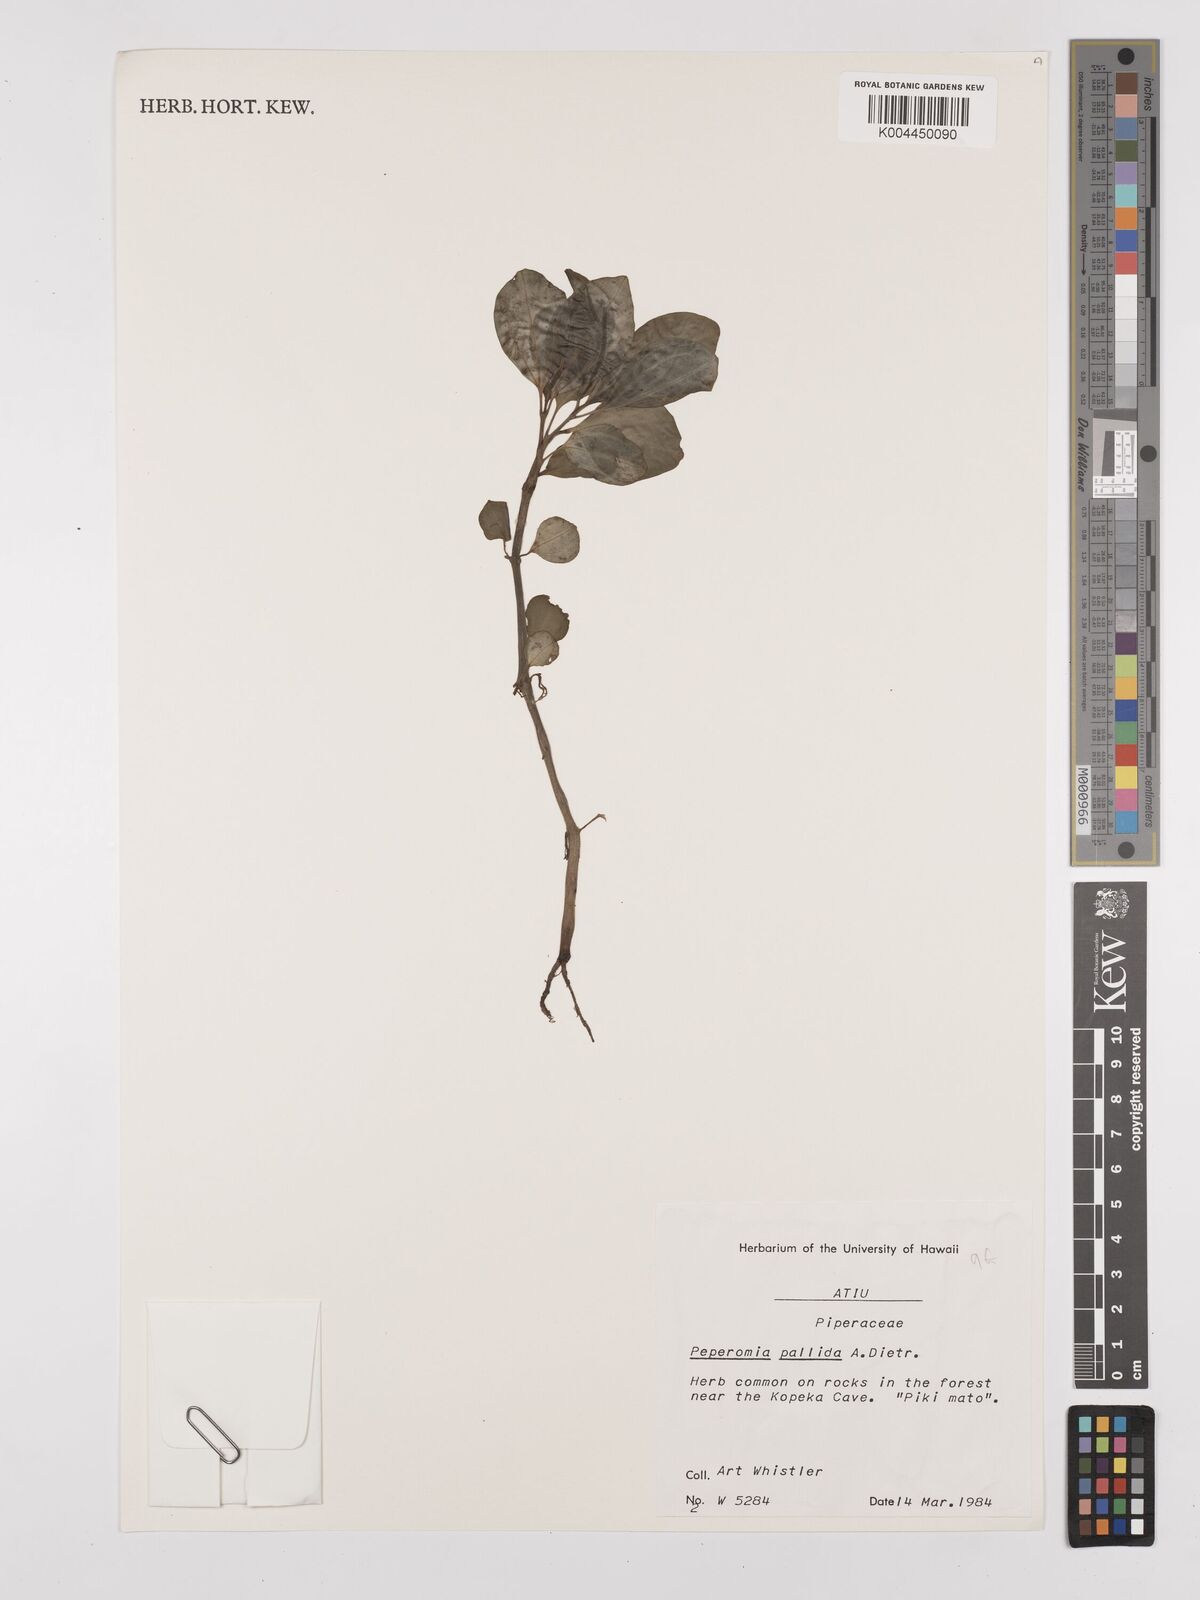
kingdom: Plantae
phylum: Tracheophyta
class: Magnoliopsida
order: Piperales
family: Piperaceae
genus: Peperomia
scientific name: Peperomia pallida
